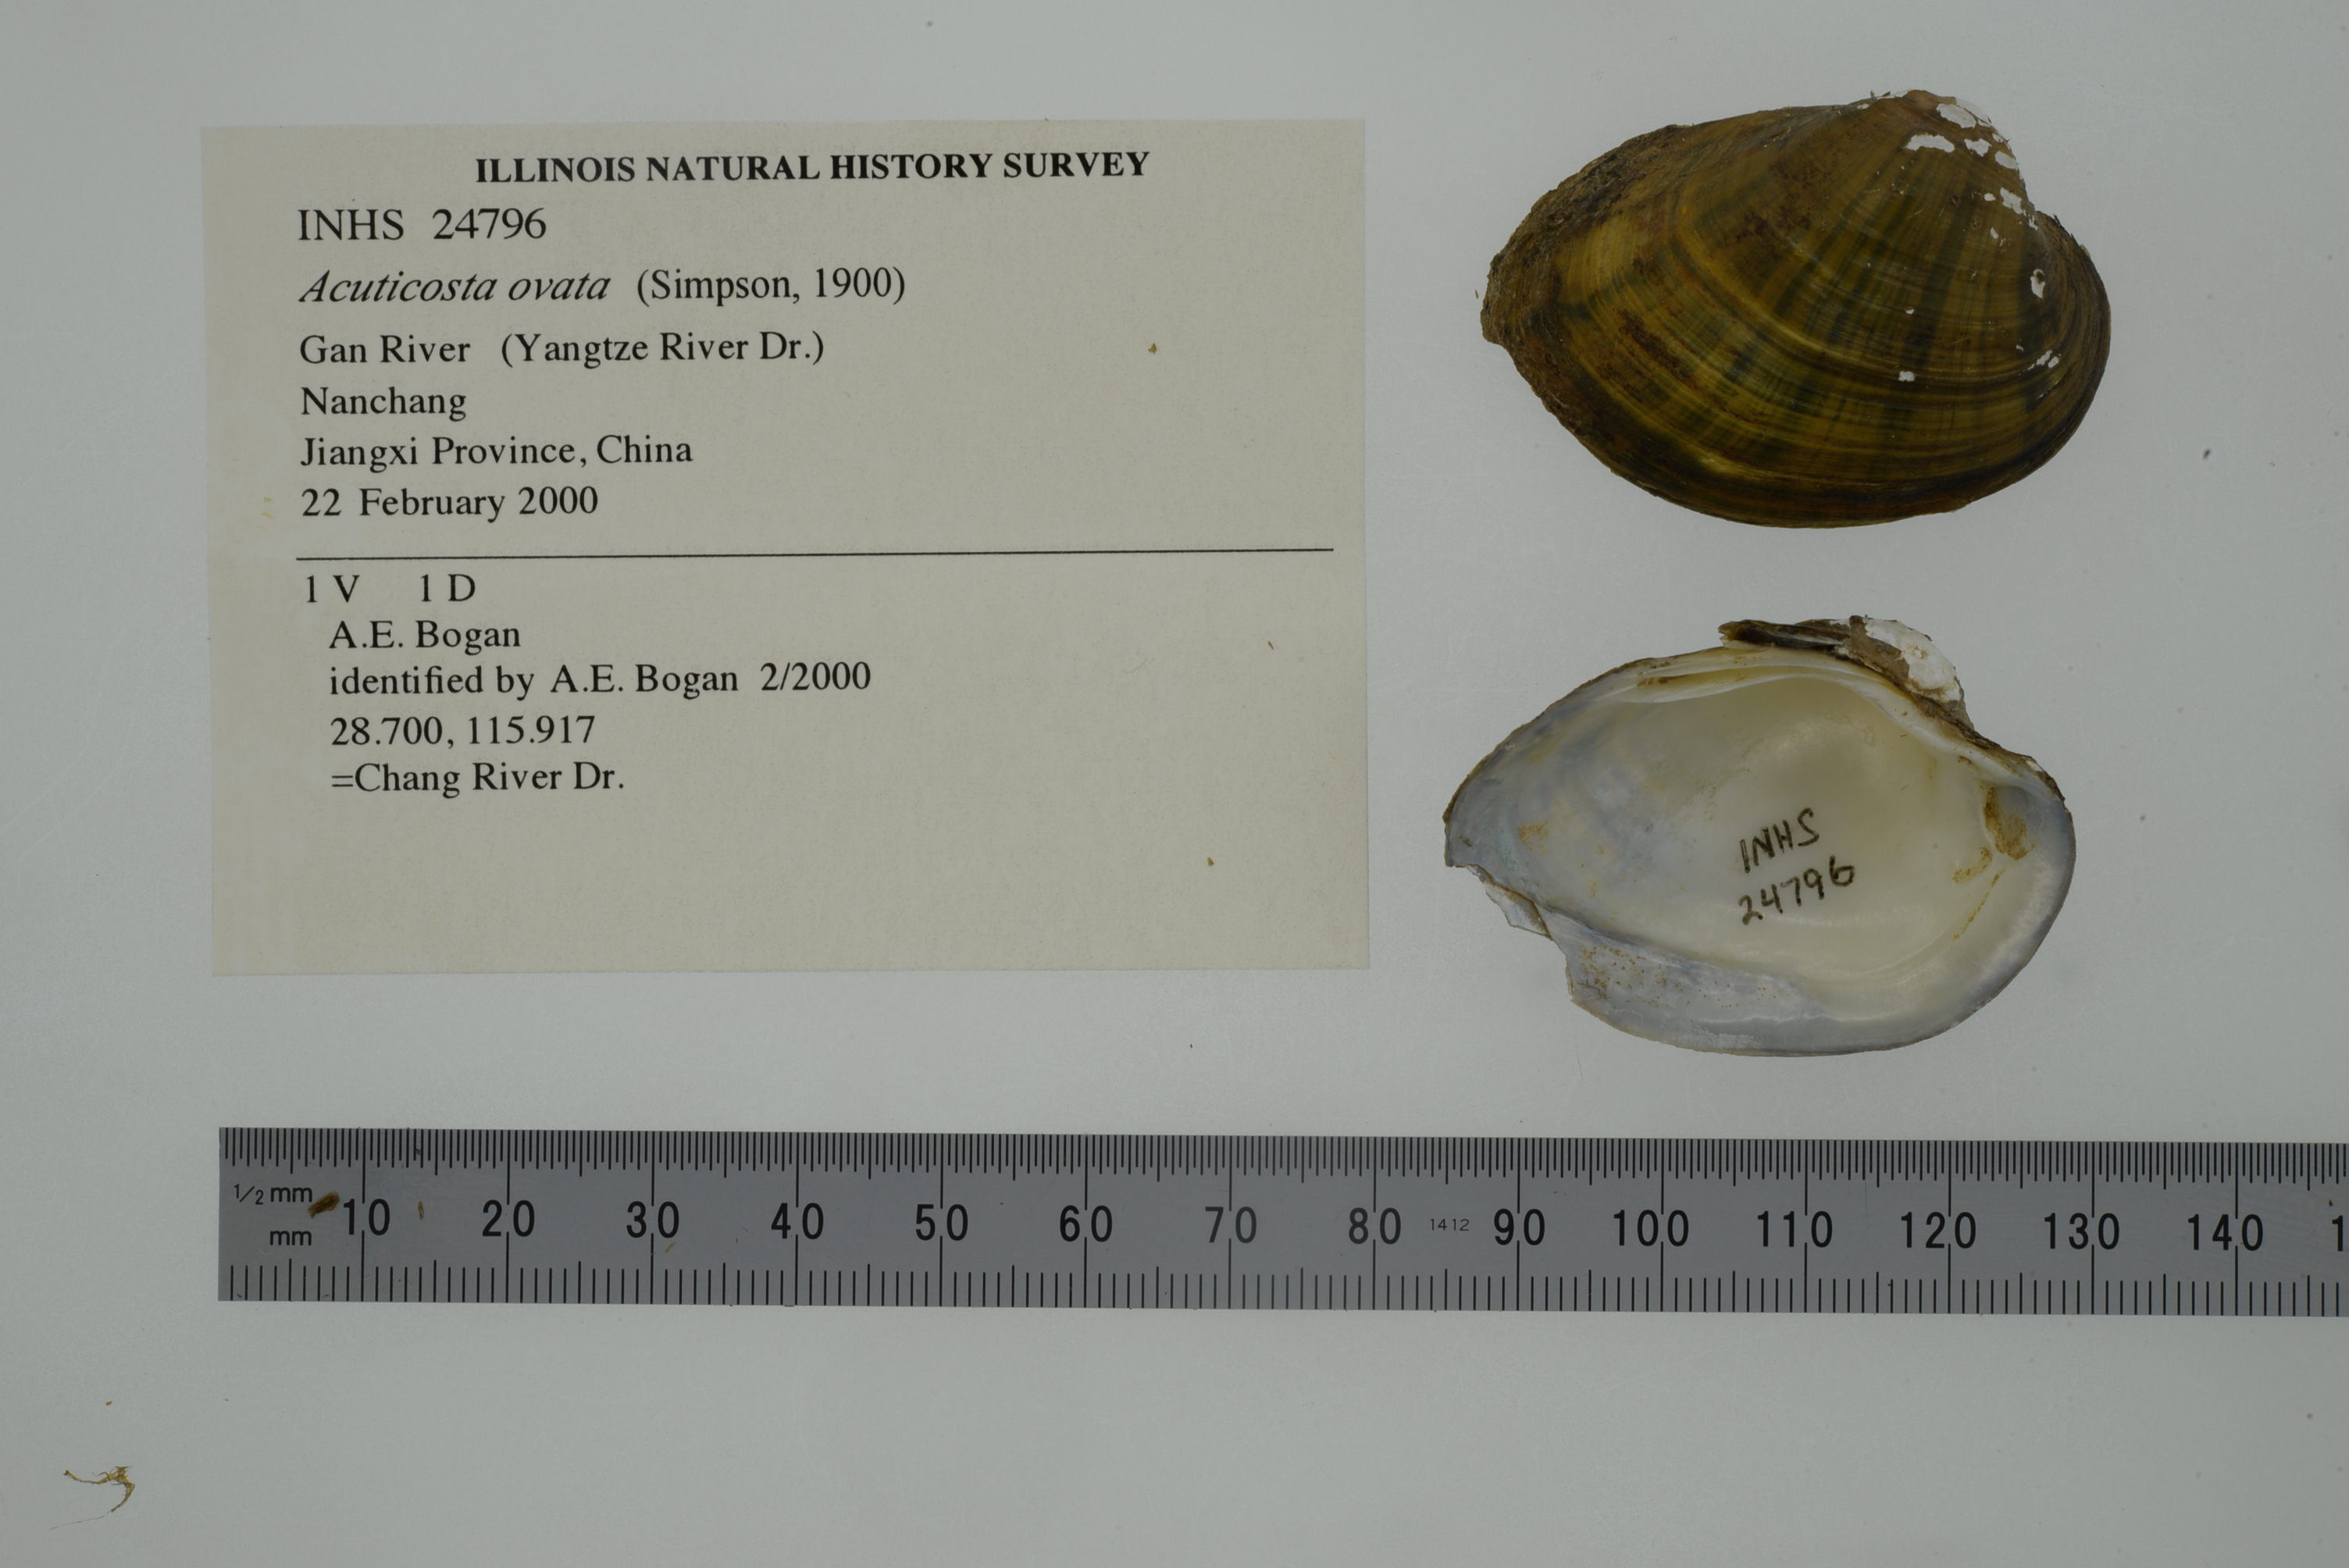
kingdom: Animalia
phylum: Mollusca
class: Bivalvia
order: Unionida
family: Unionidae
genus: Acuticosta
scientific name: Acuticosta retiaria
